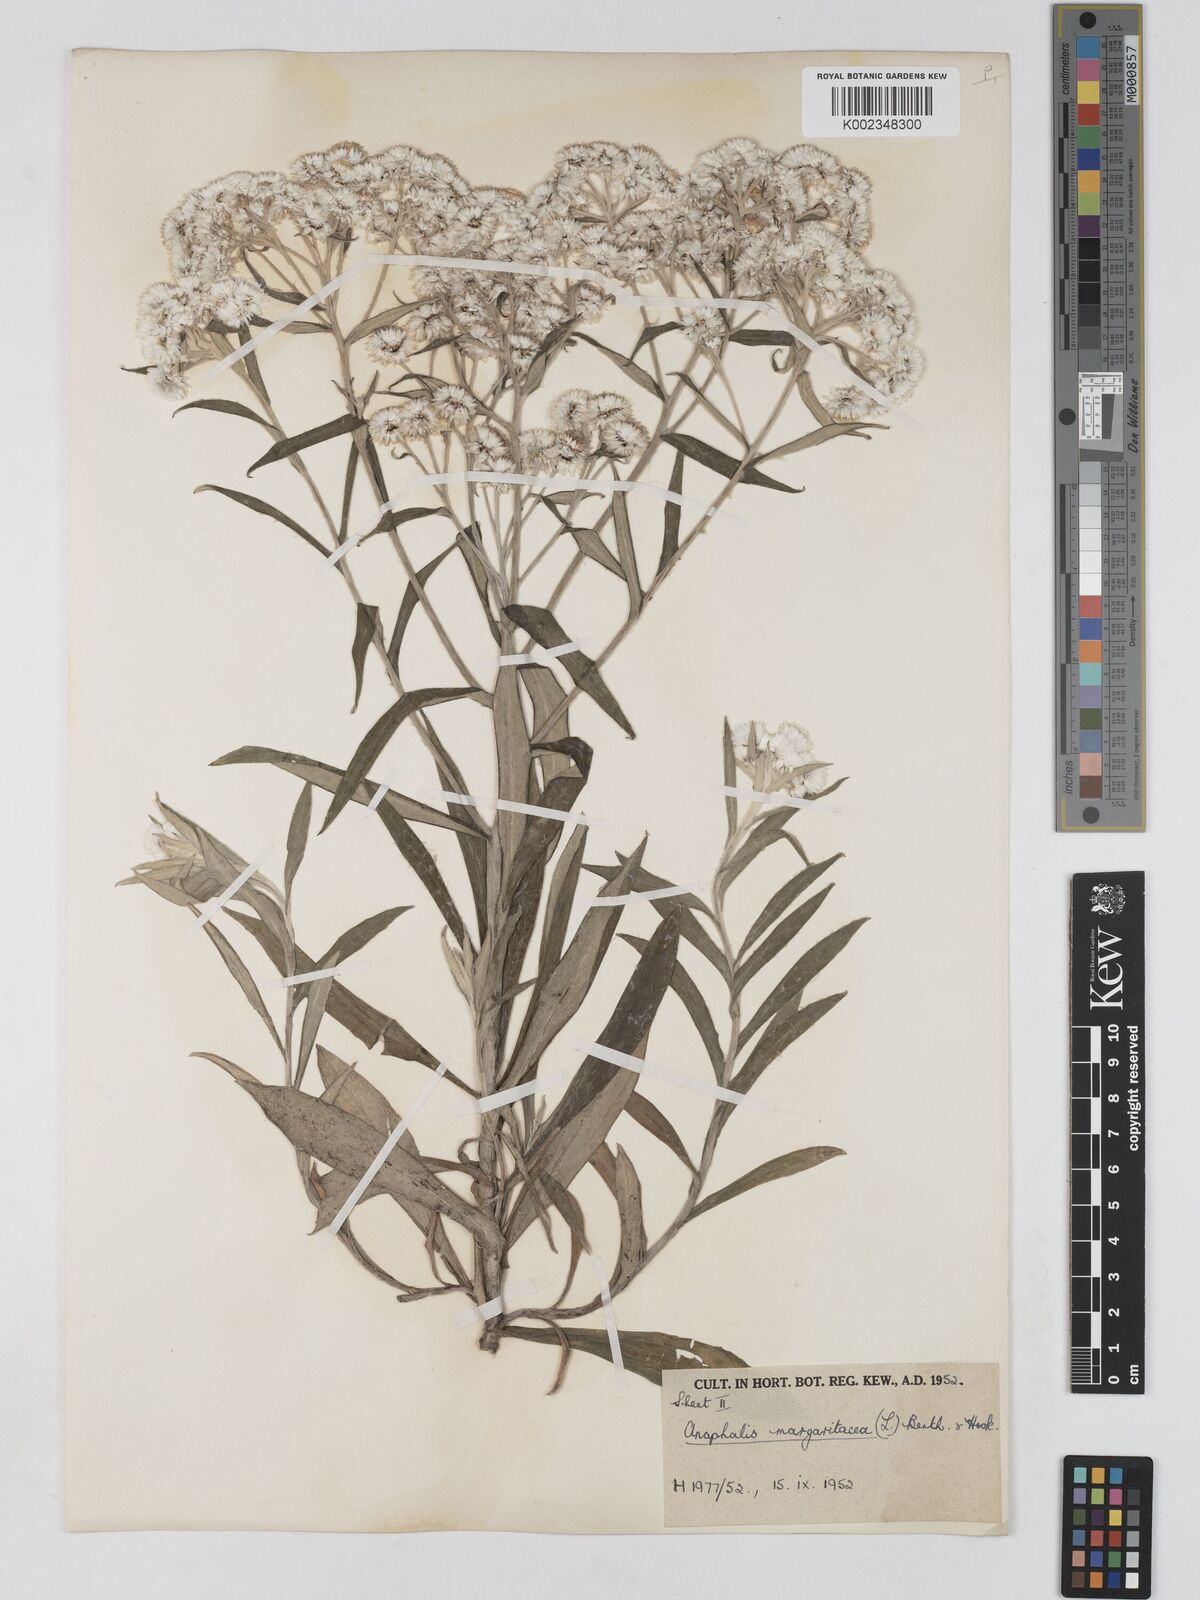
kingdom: Plantae
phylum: Tracheophyta
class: Magnoliopsida
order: Asterales
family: Asteraceae
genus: Anaphalis
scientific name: Anaphalis margaritacea
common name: Pearly everlasting
